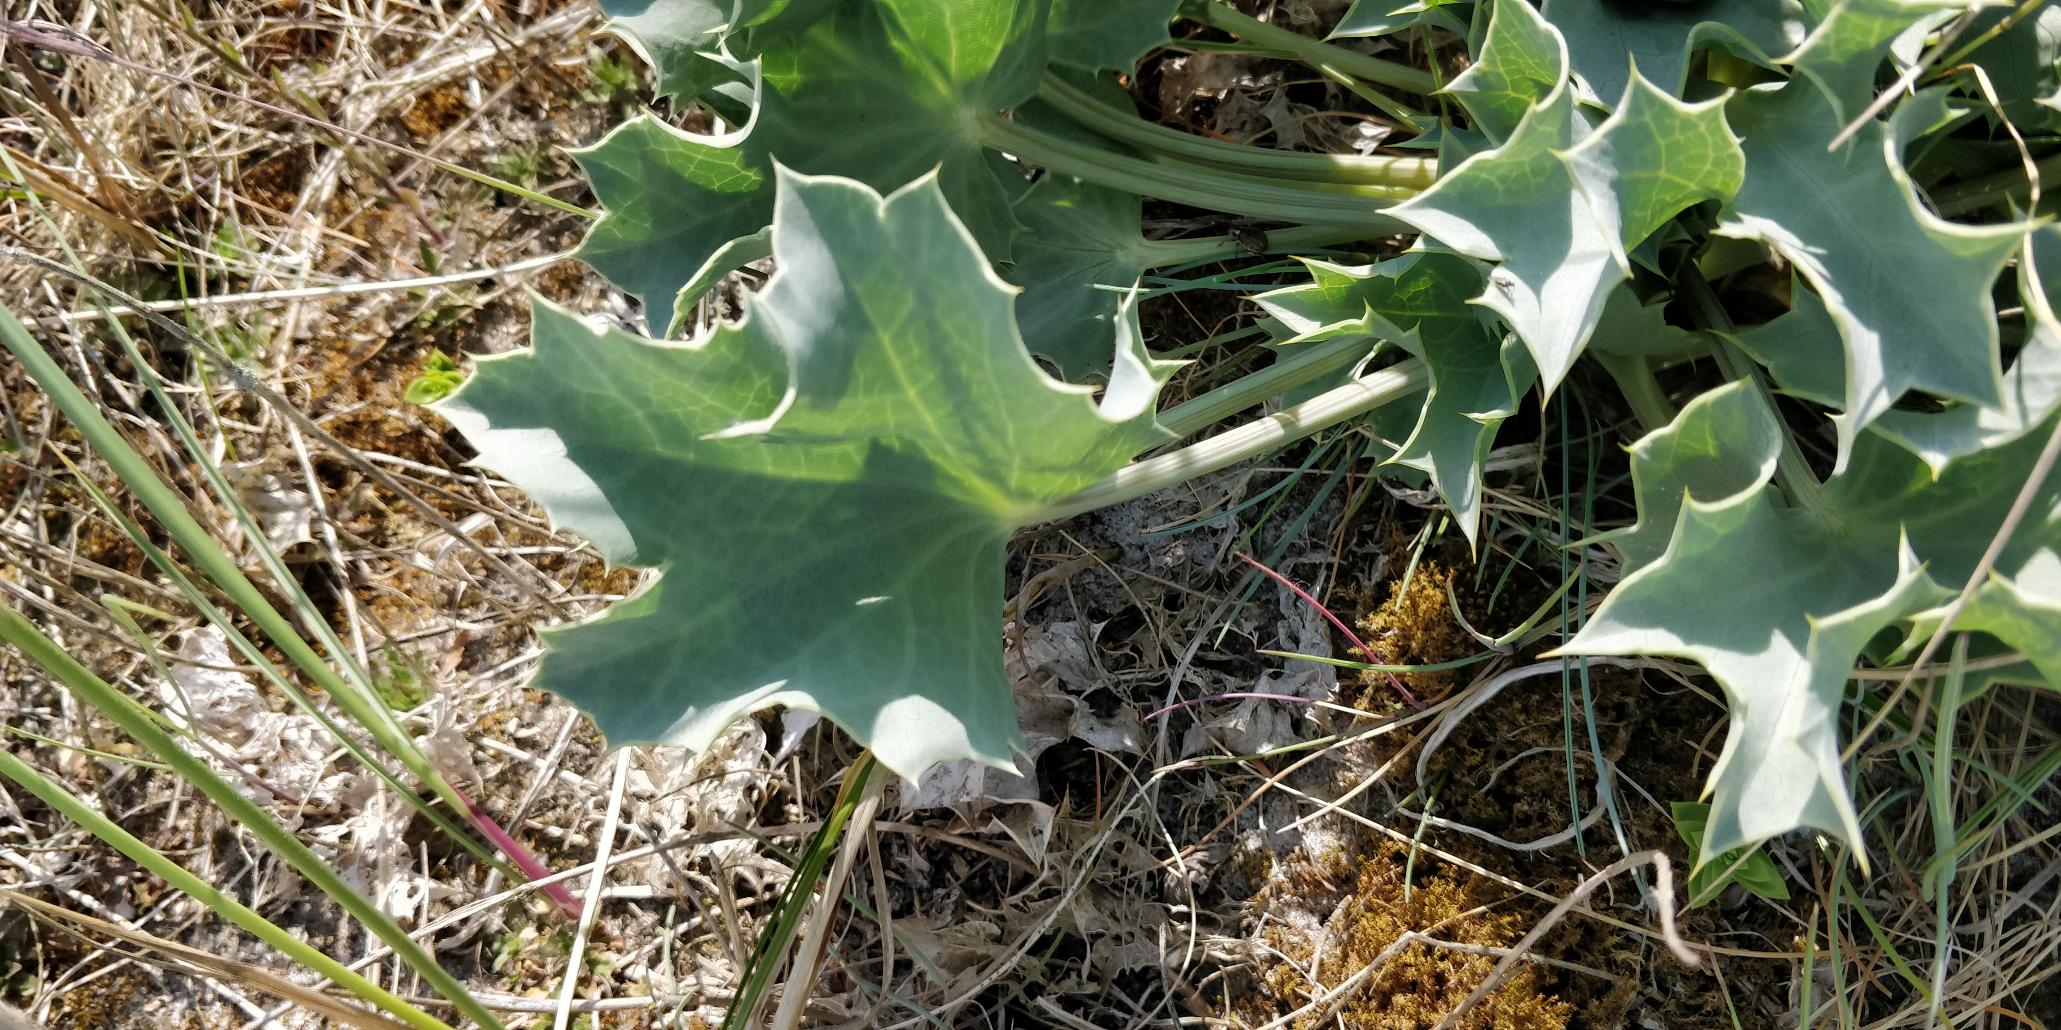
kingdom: Plantae
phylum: Tracheophyta
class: Magnoliopsida
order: Apiales
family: Apiaceae
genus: Eryngium
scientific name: Eryngium maritimum
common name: Strand-mandstro
